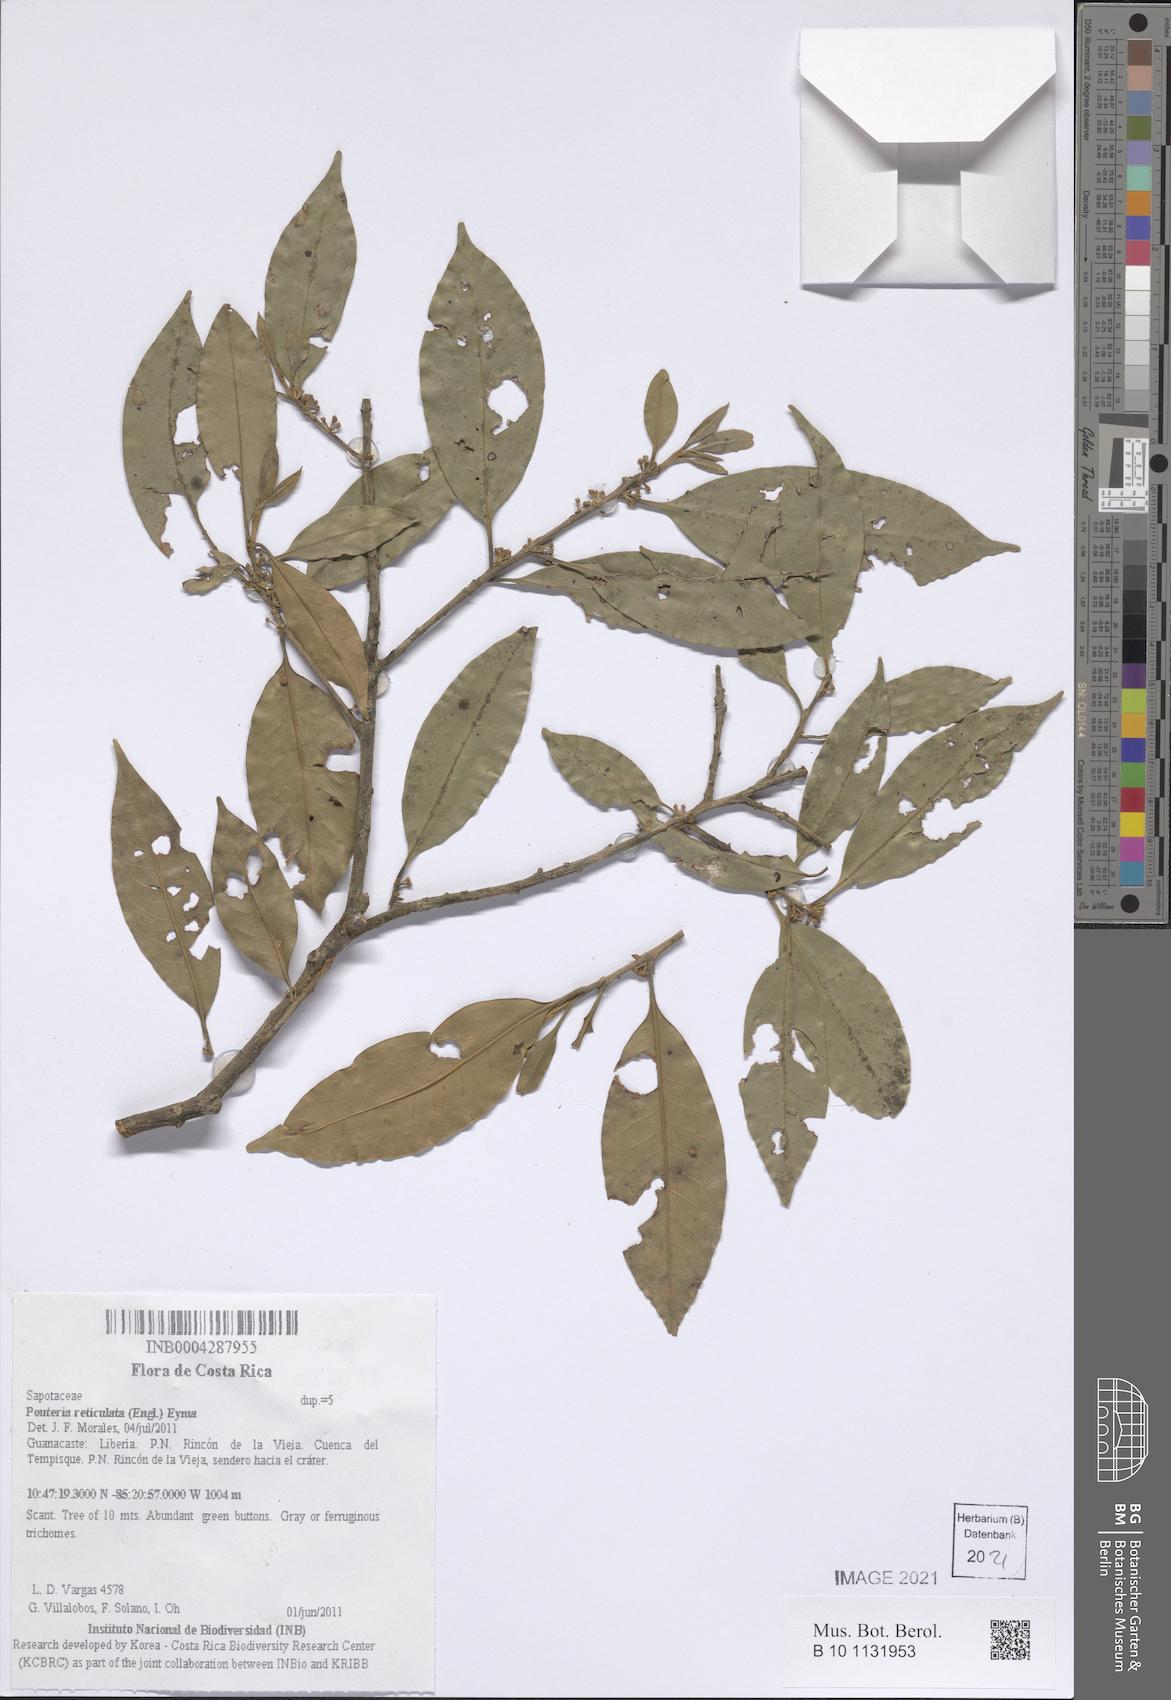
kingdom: Plantae
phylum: Tracheophyta
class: Magnoliopsida
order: Ericales
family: Sapotaceae
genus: Pouteria
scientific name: Pouteria reticulata
